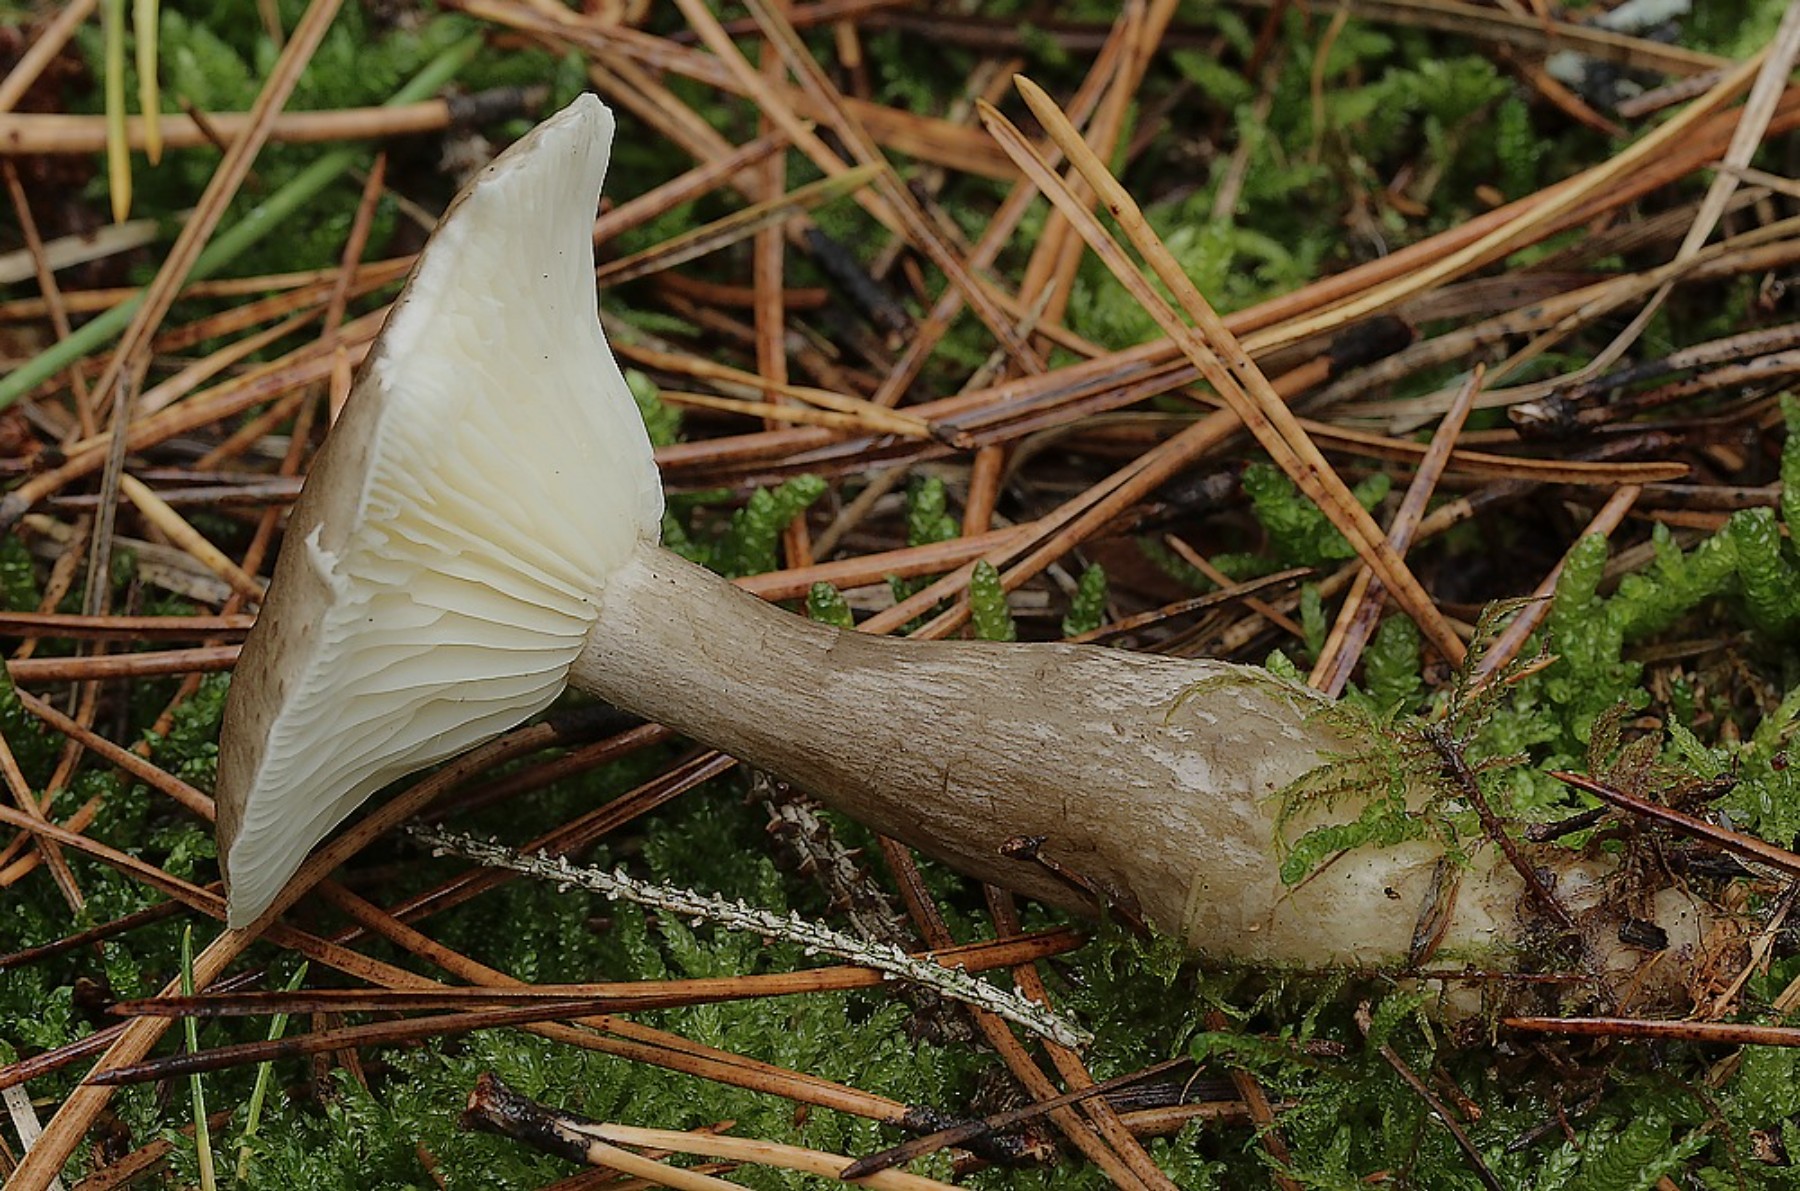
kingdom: Fungi
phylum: Basidiomycota
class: Agaricomycetes
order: Agaricales
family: Hygrophoraceae
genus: Ampulloclitocybe
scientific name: Ampulloclitocybe clavipes
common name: køllefod
